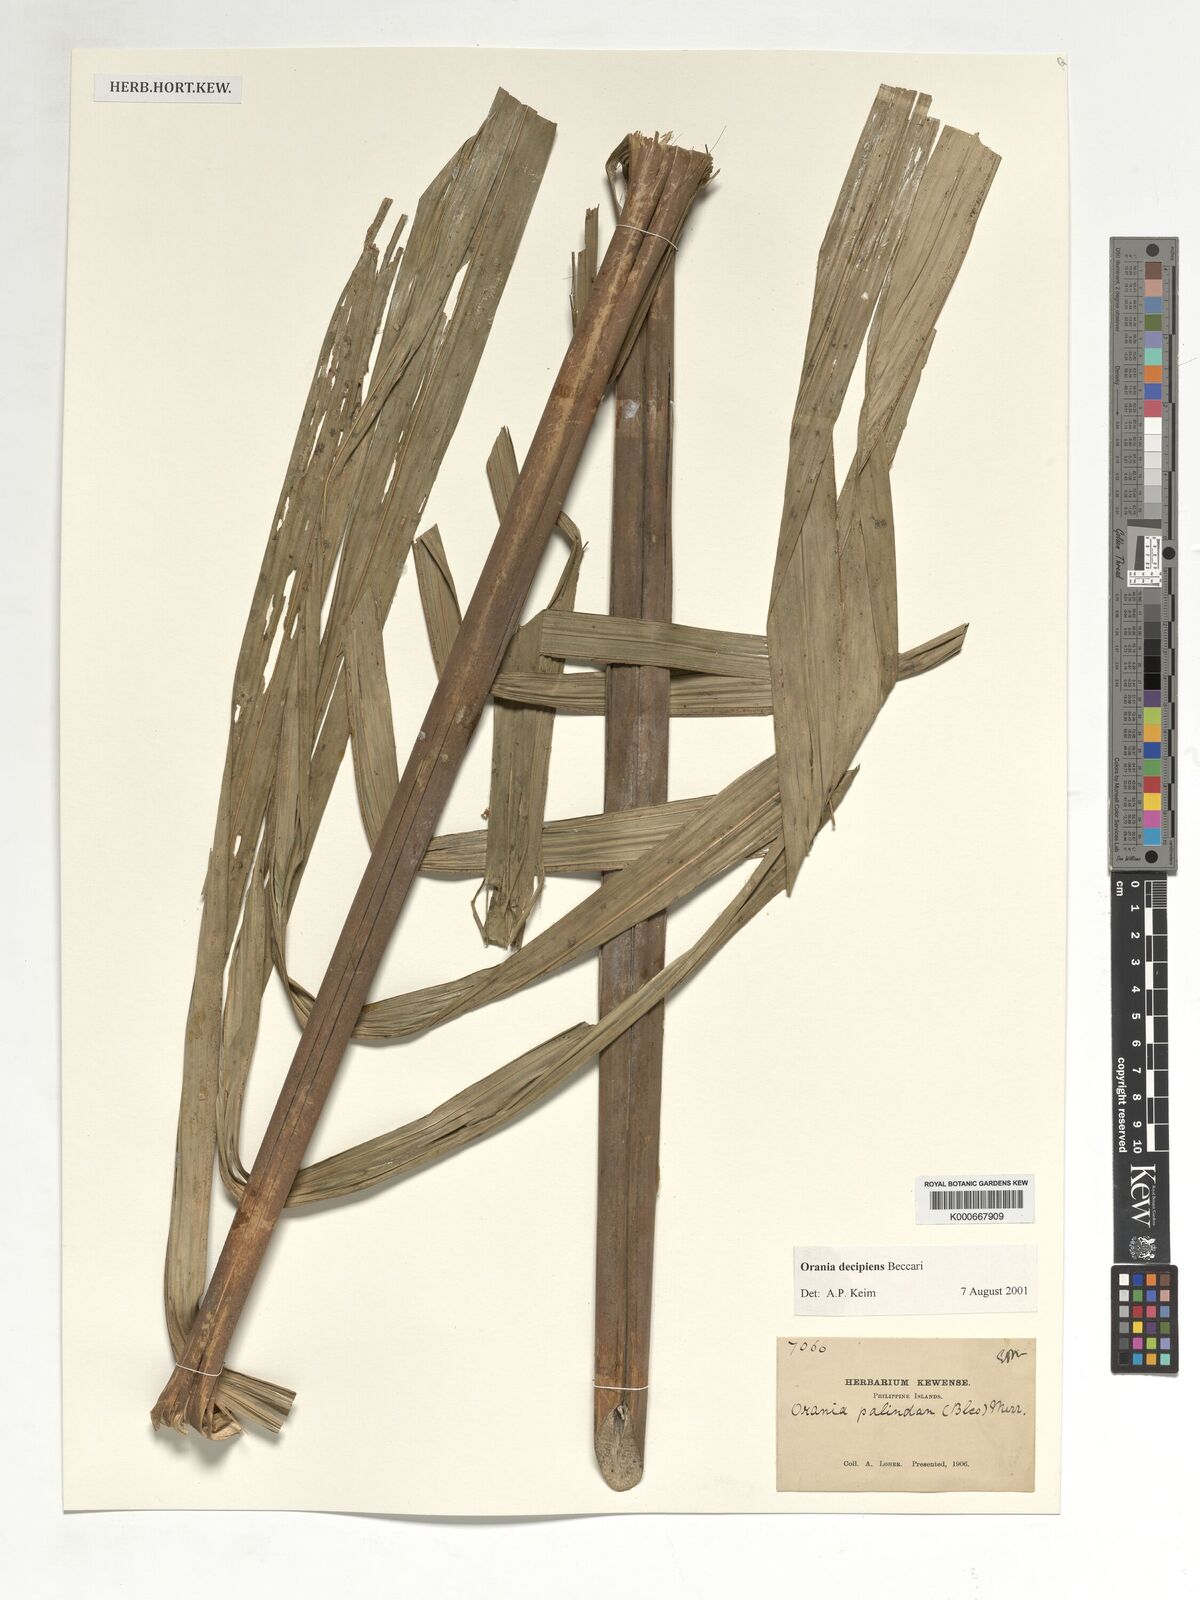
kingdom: Plantae
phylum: Tracheophyta
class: Liliopsida
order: Arecales
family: Arecaceae
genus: Orania
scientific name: Orania decipiens
